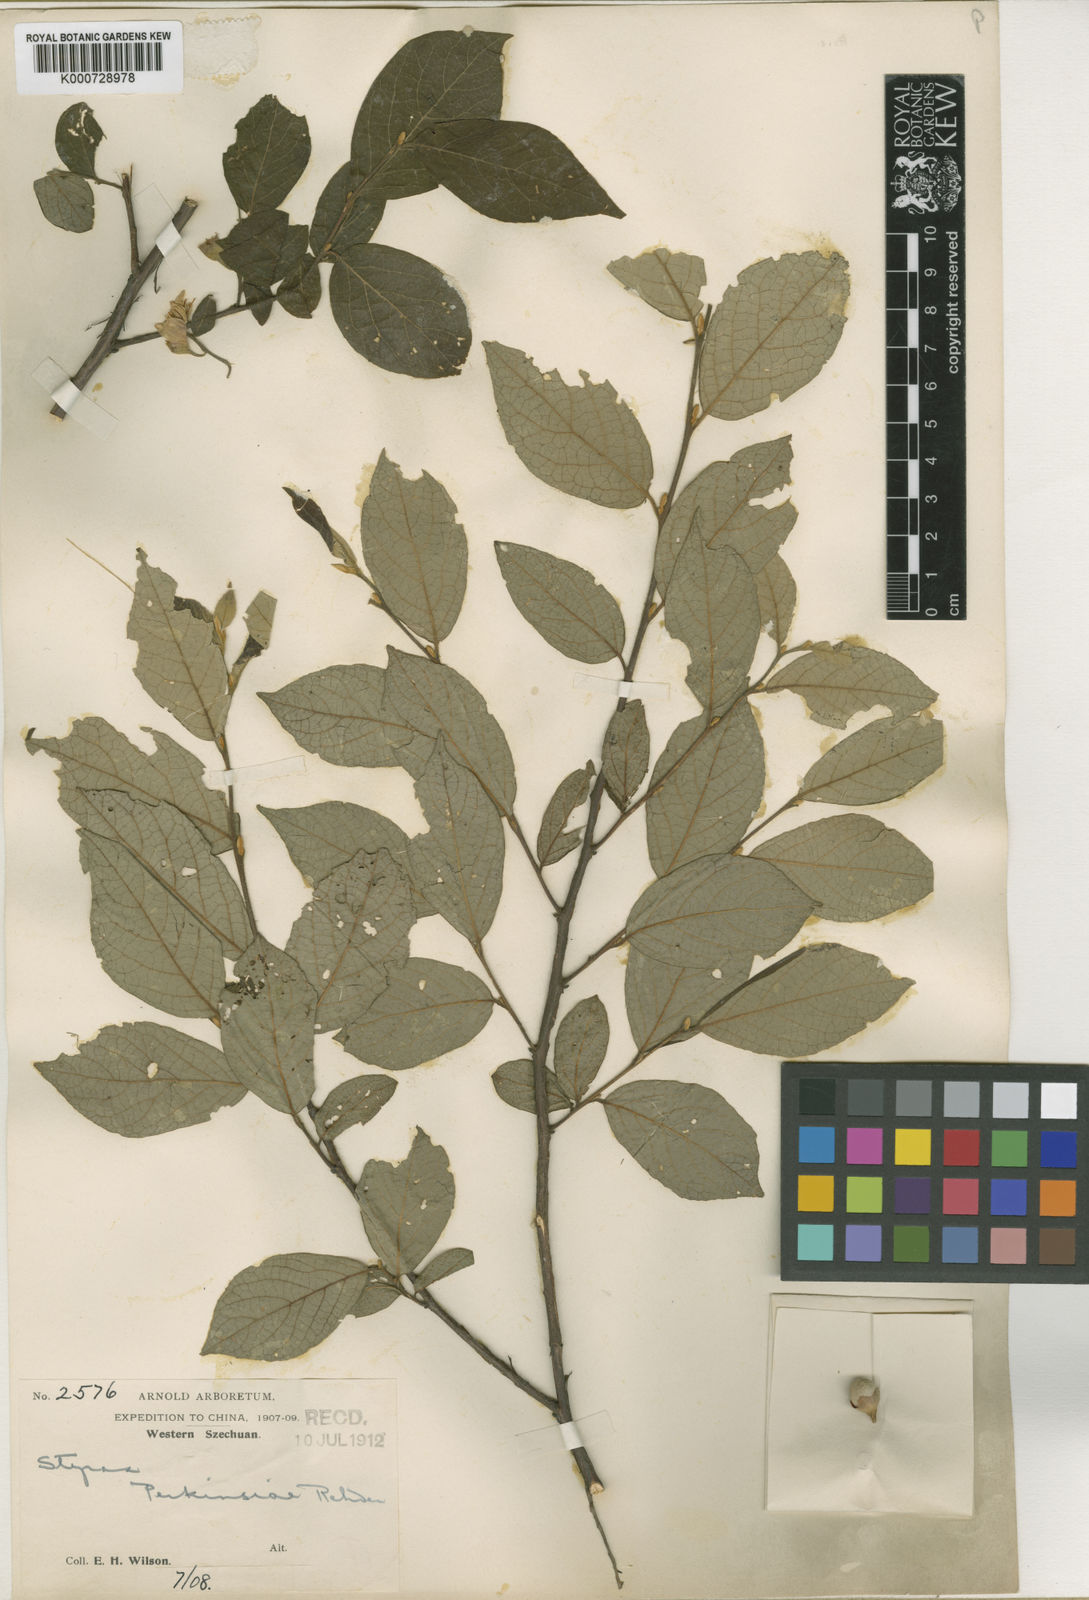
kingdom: Plantae
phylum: Tracheophyta
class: Magnoliopsida
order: Ericales
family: Styracaceae
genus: Styrax
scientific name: Styrax hookeri
